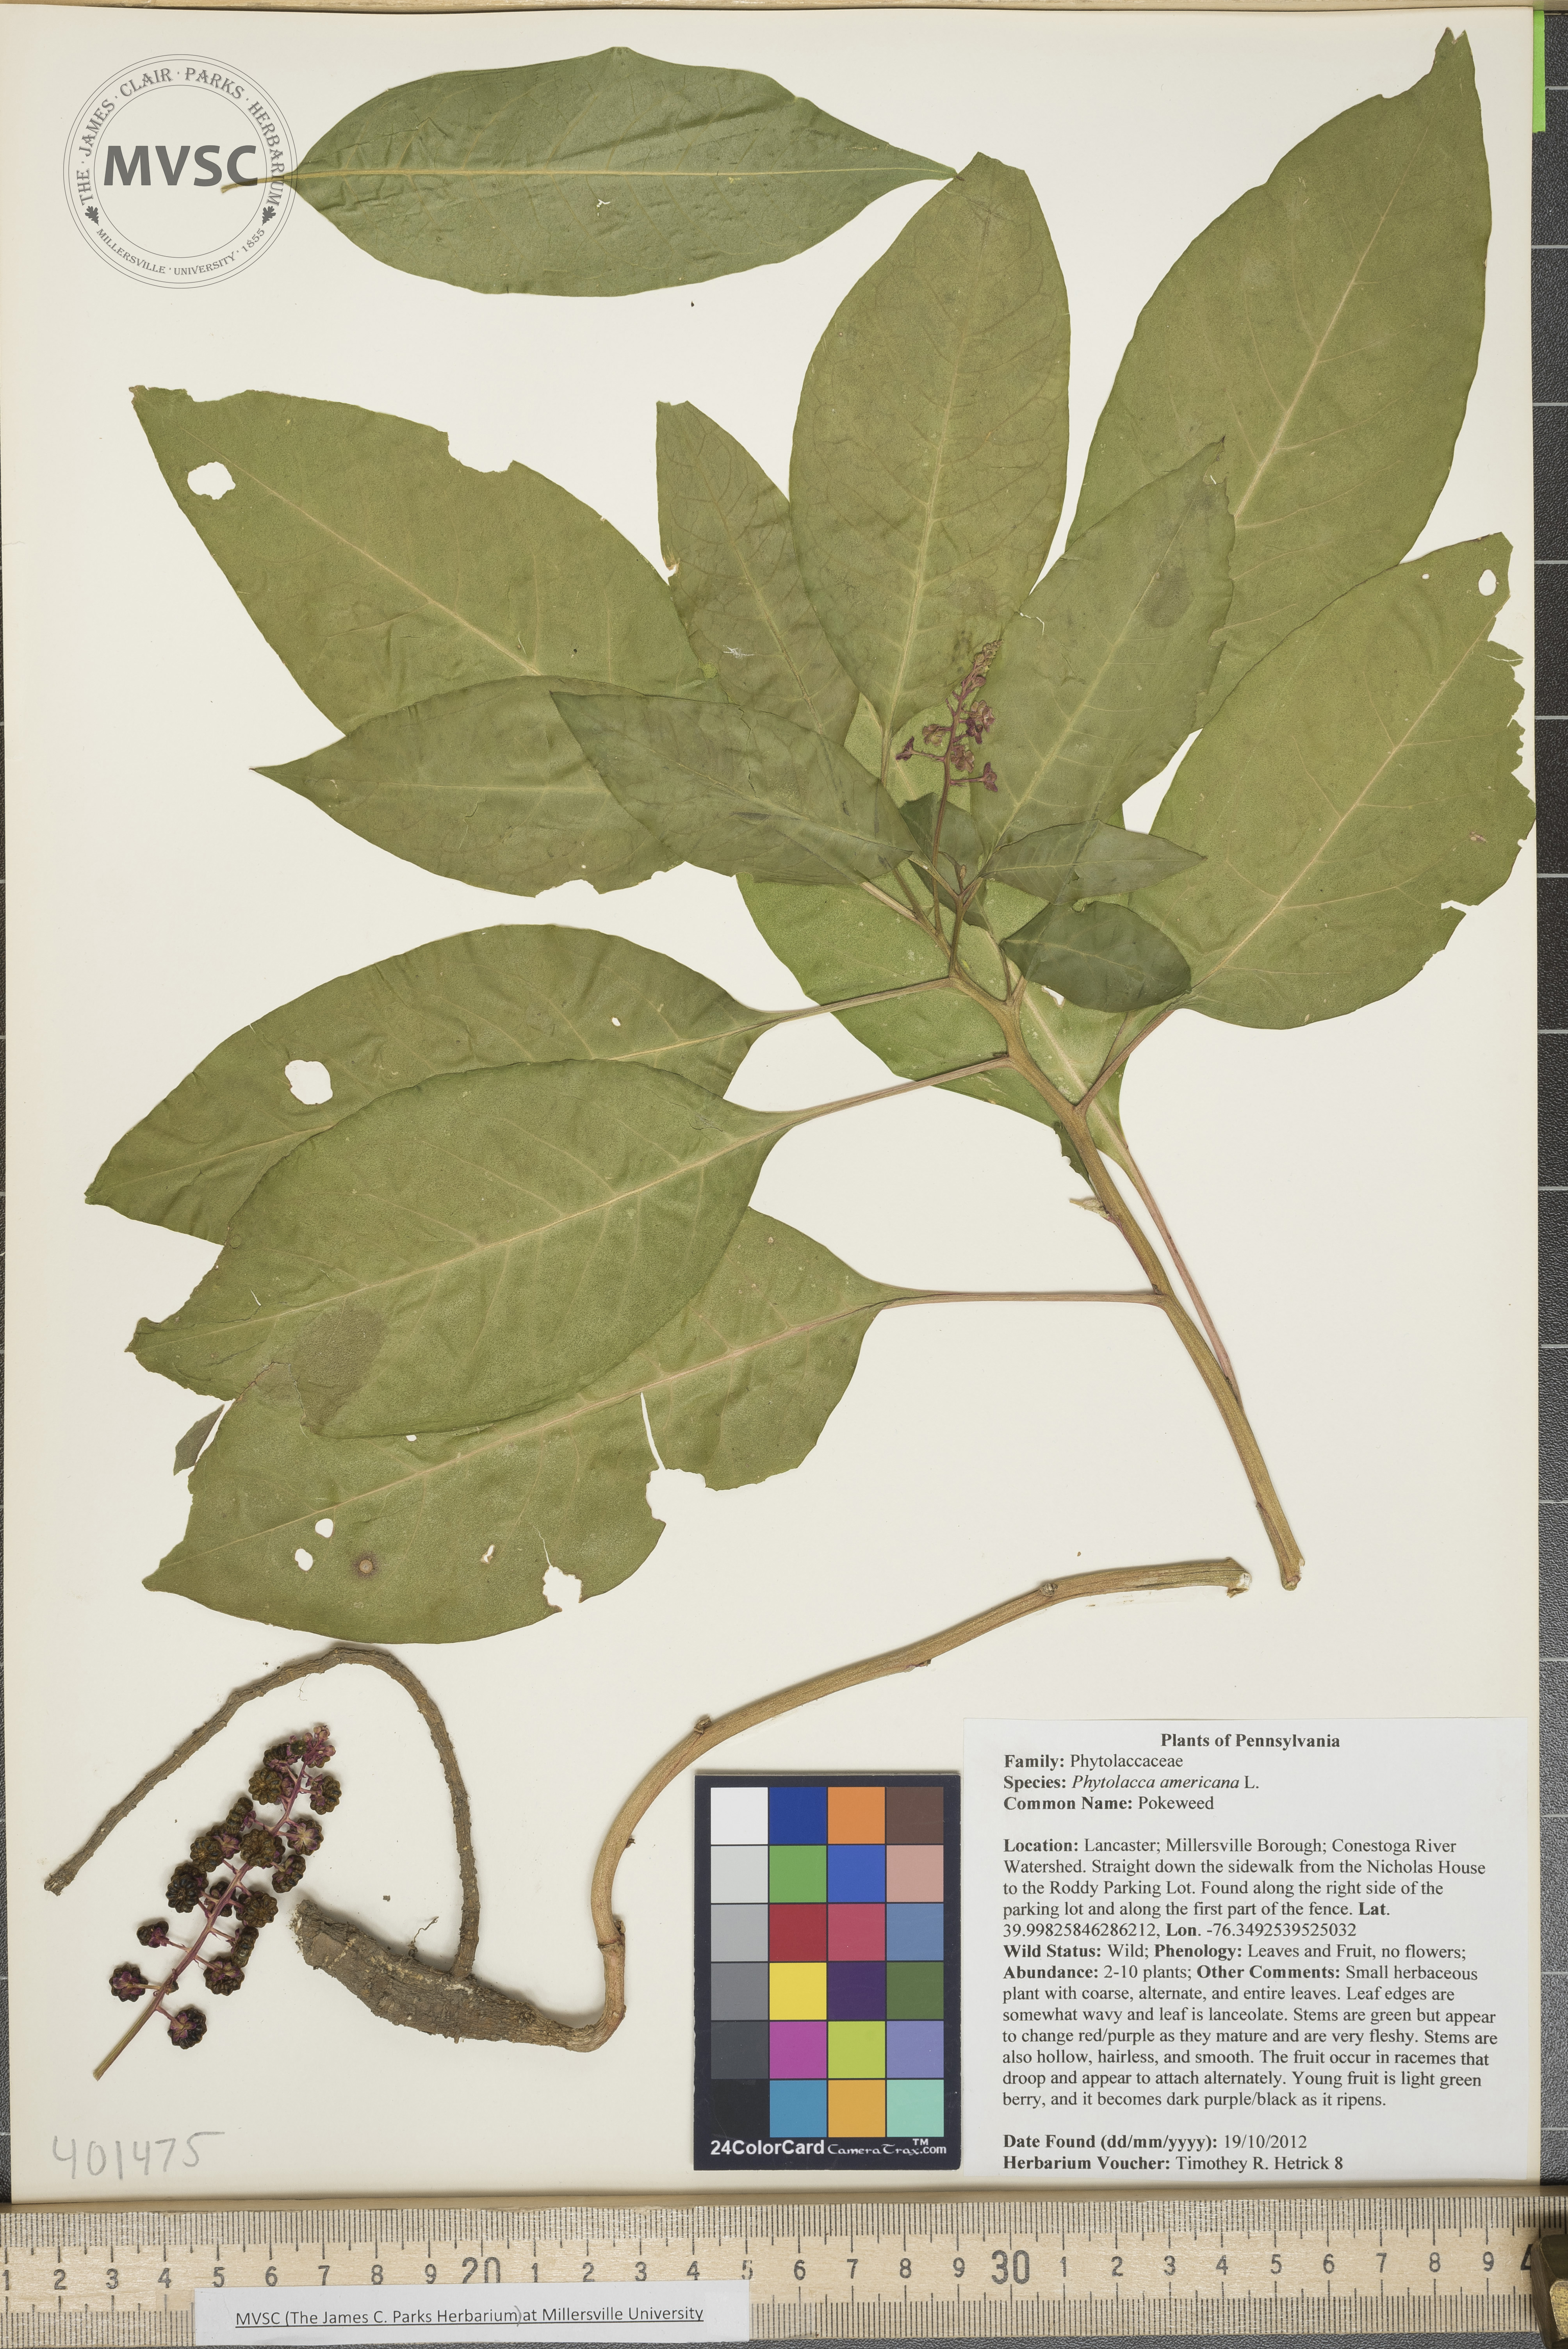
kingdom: Plantae
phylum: Tracheophyta
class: Magnoliopsida
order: Caryophyllales
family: Phytolaccaceae
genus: Phytolacca
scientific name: Phytolacca americana
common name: Pokeweed
